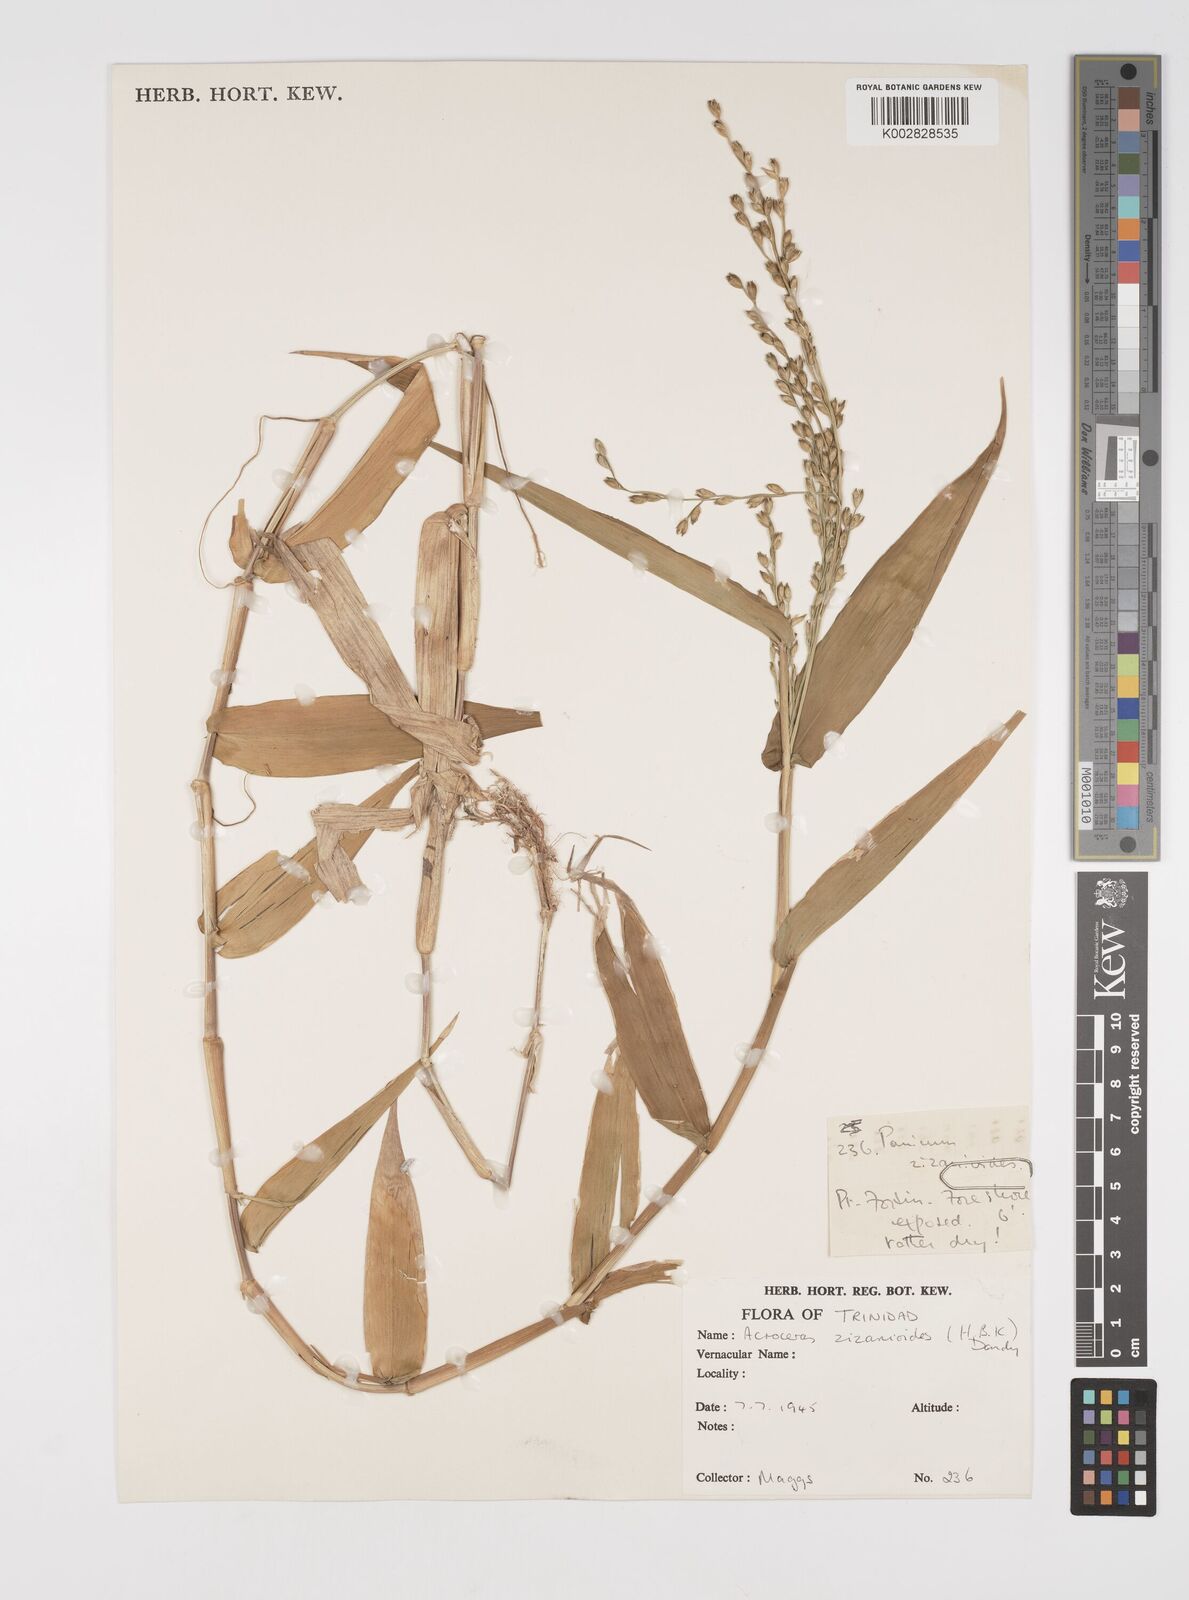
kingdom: Plantae
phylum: Tracheophyta
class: Liliopsida
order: Poales
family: Poaceae
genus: Acroceras
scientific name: Acroceras zizanioides
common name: Oat grass
